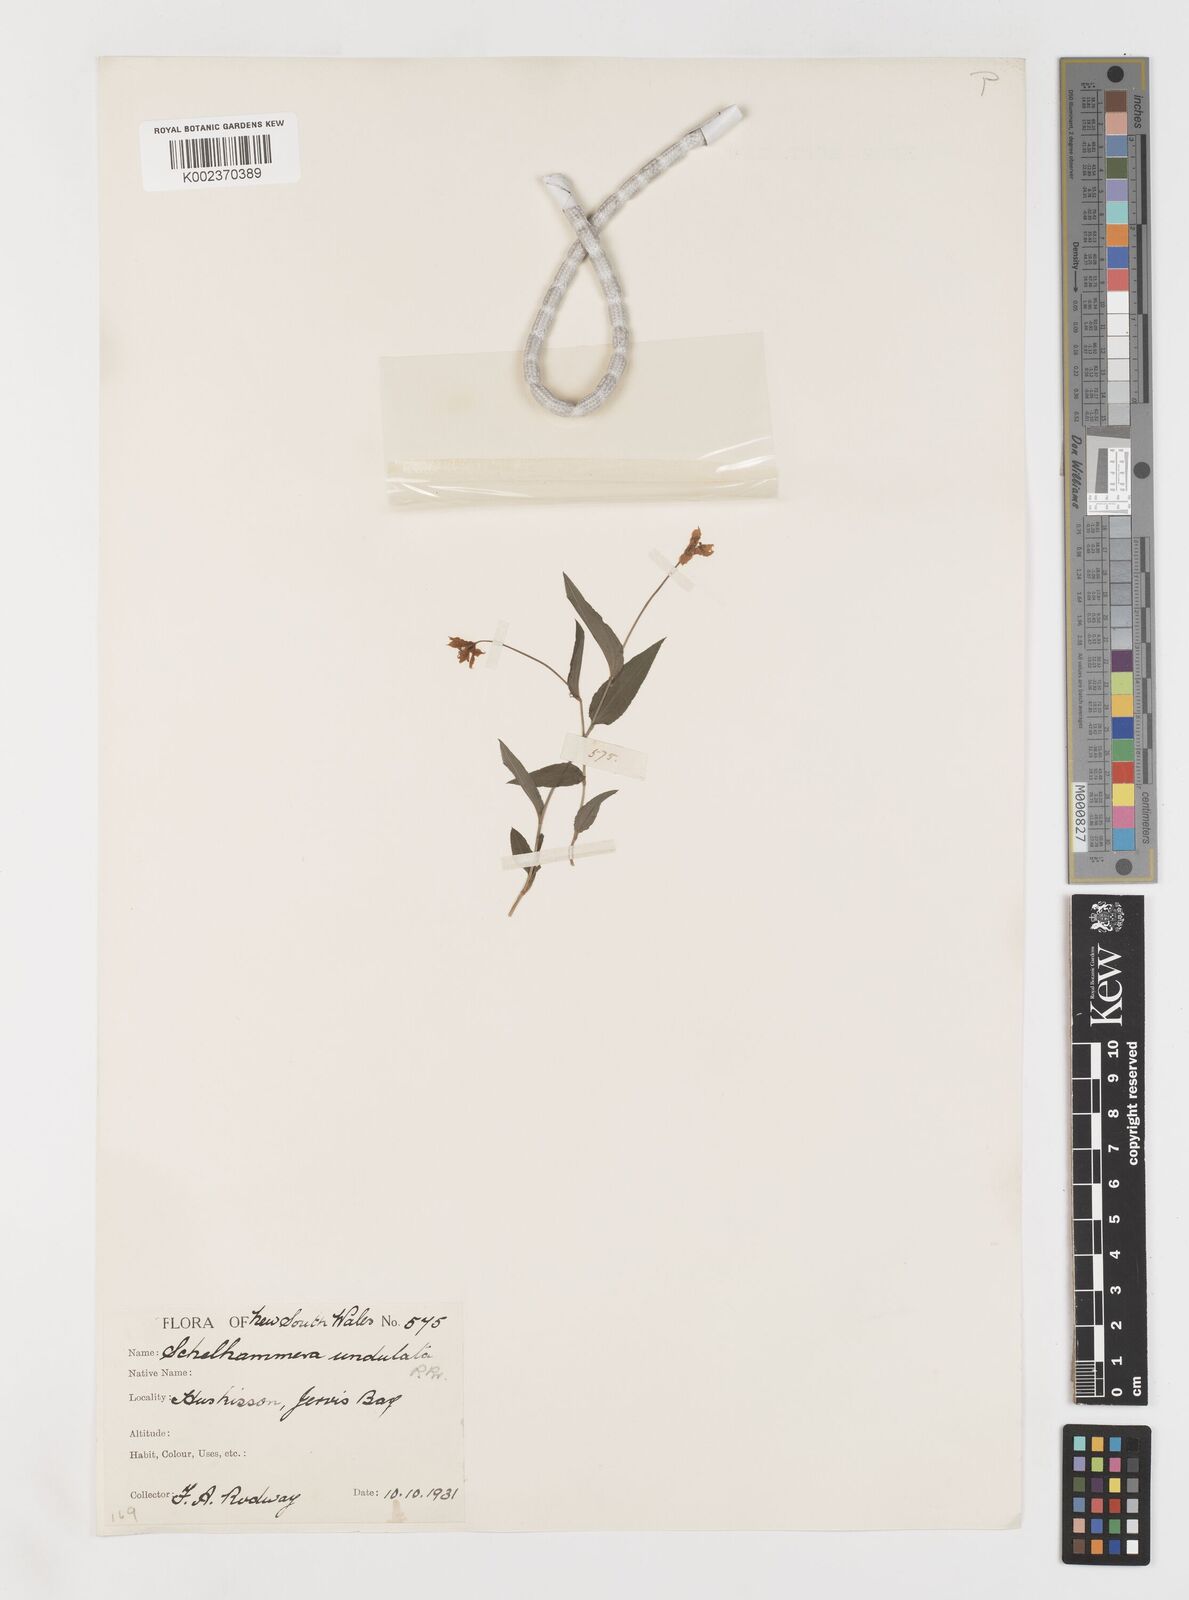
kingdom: Plantae
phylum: Tracheophyta
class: Liliopsida
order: Liliales
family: Colchicaceae
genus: Schelhammera
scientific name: Schelhammera undulata
